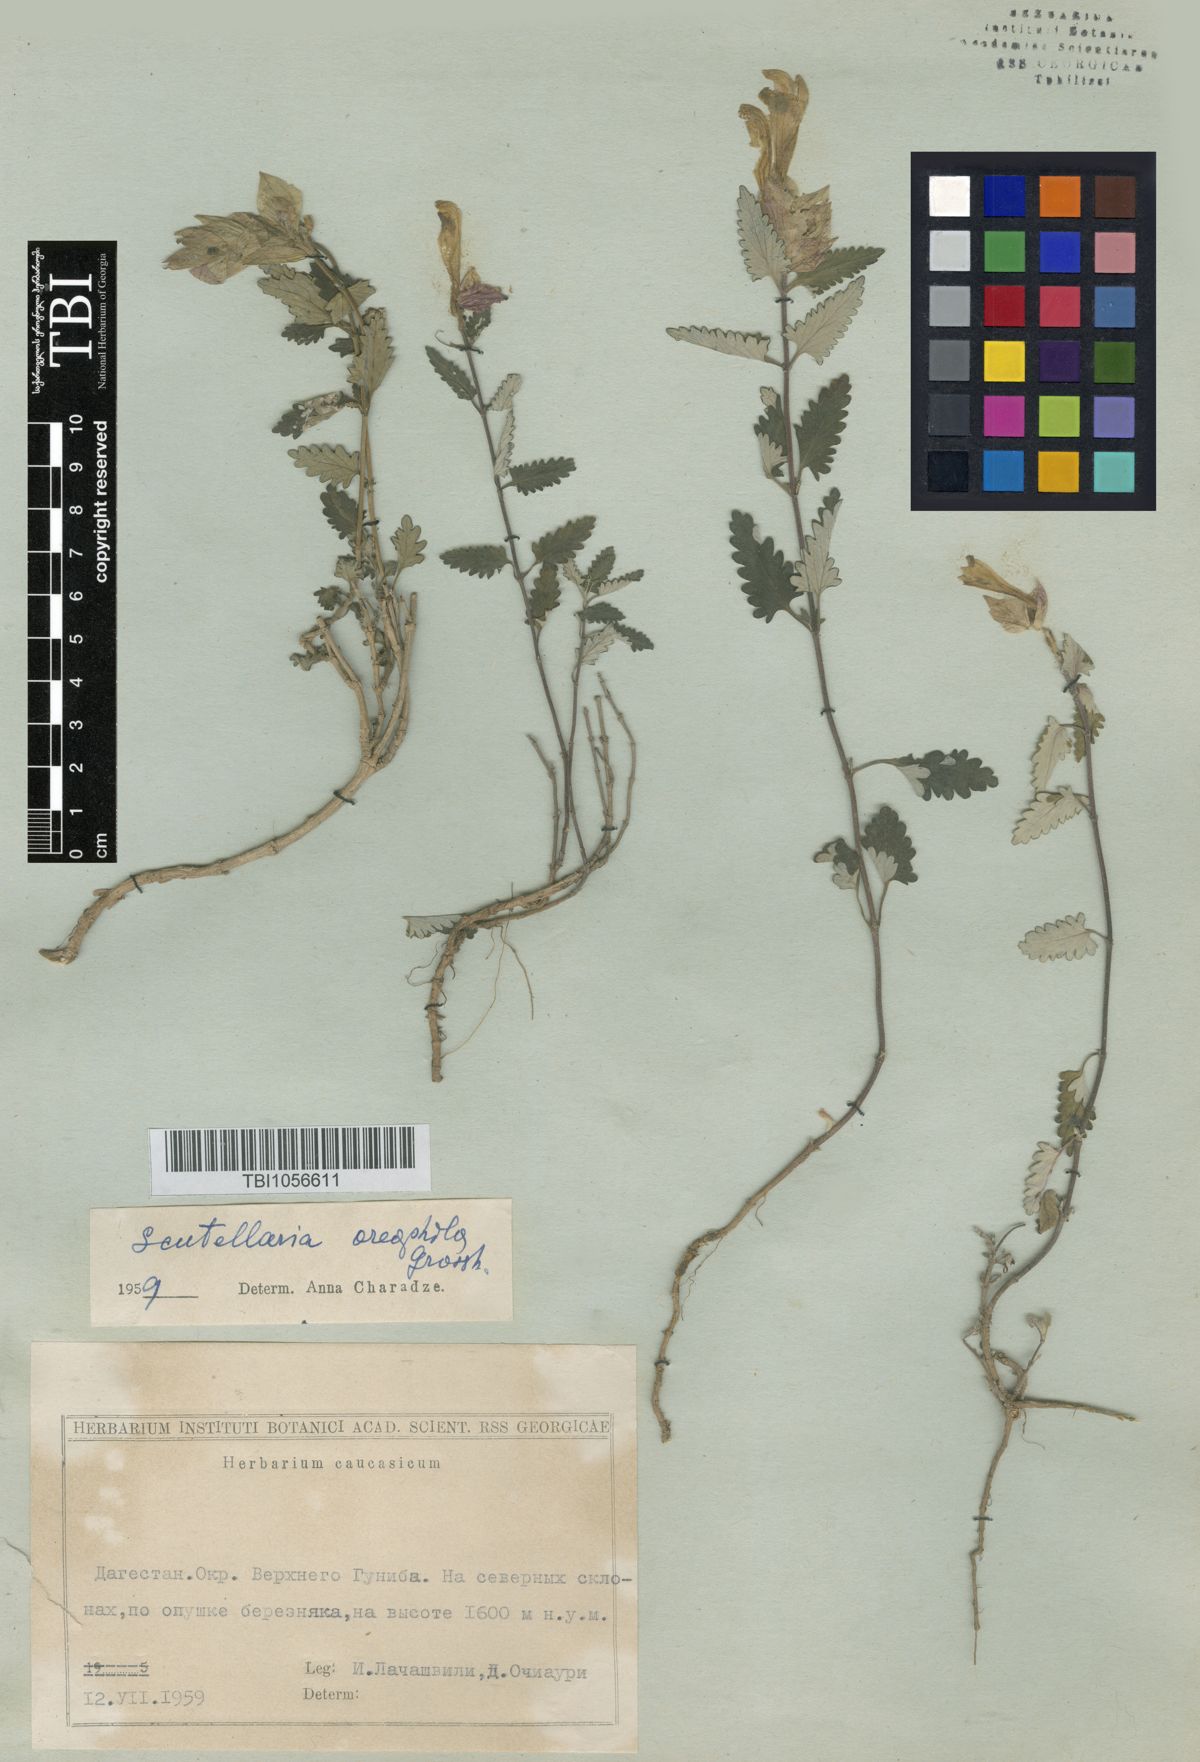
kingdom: Plantae
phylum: Tracheophyta
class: Magnoliopsida
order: Lamiales
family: Lamiaceae
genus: Scutellaria
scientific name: Scutellaria oreophila
